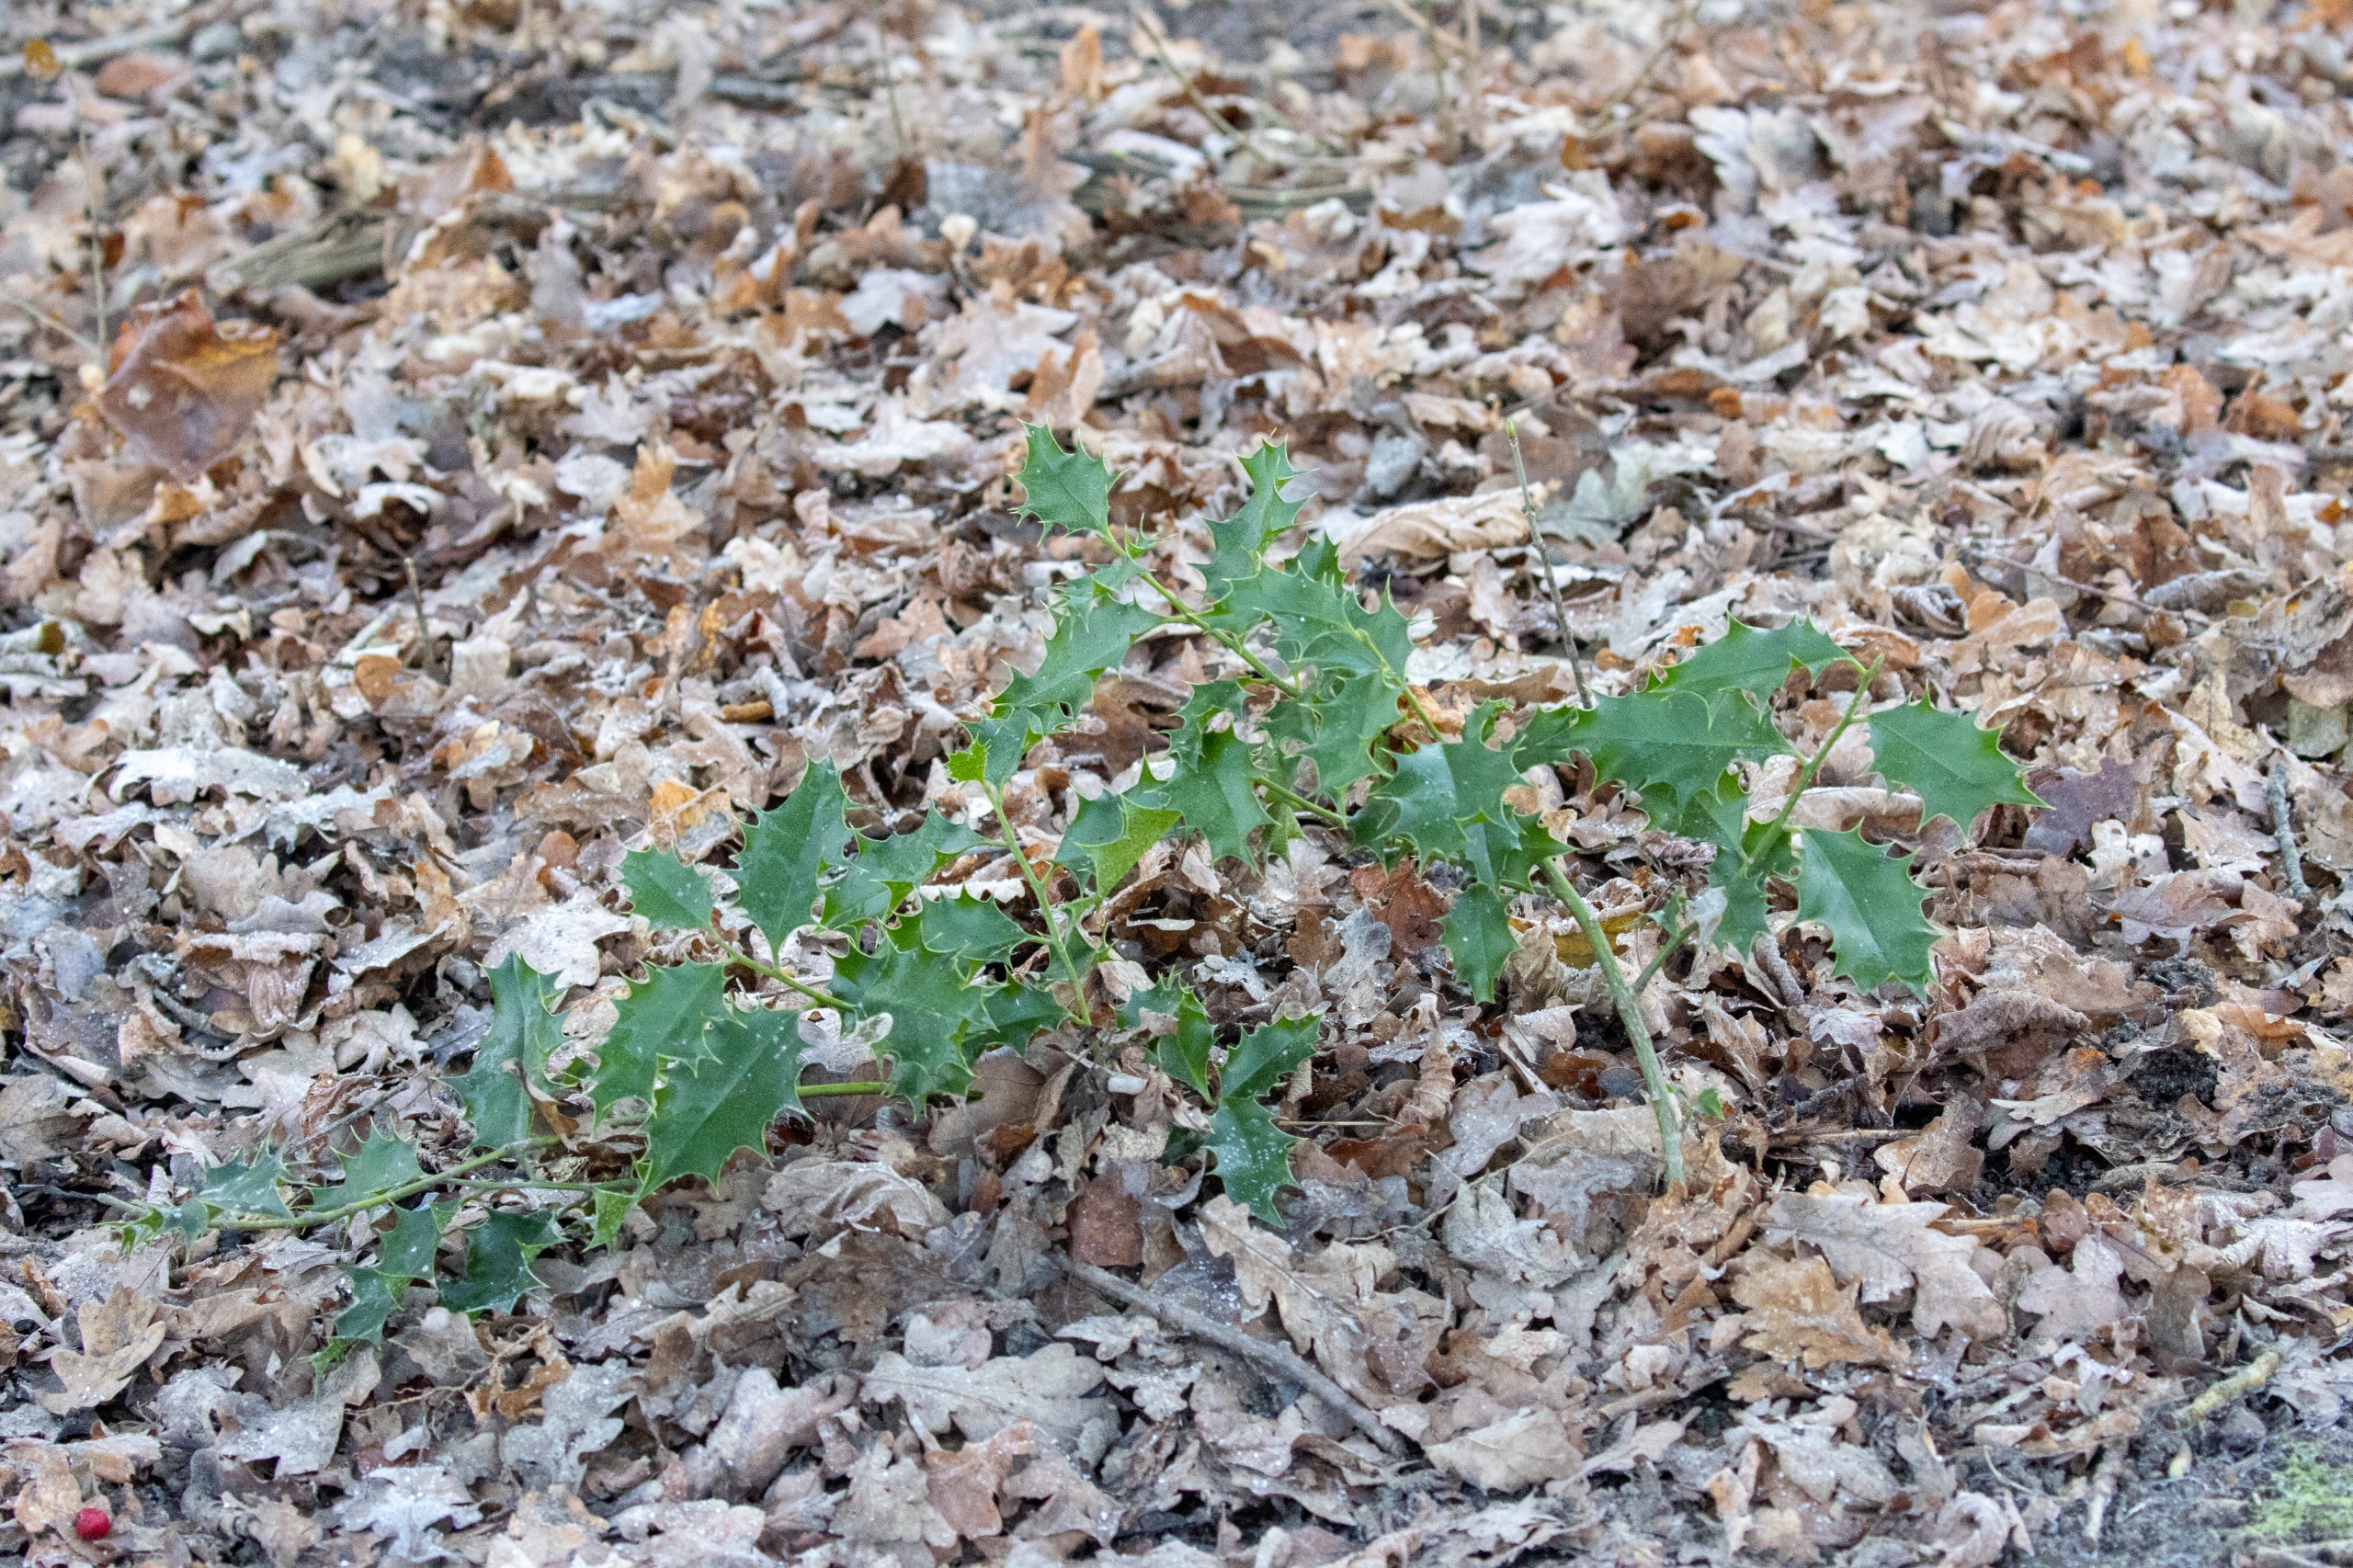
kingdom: Plantae
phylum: Tracheophyta
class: Magnoliopsida
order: Aquifoliales
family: Aquifoliaceae
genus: Ilex
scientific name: Ilex aquifolium
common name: Kristtorn
